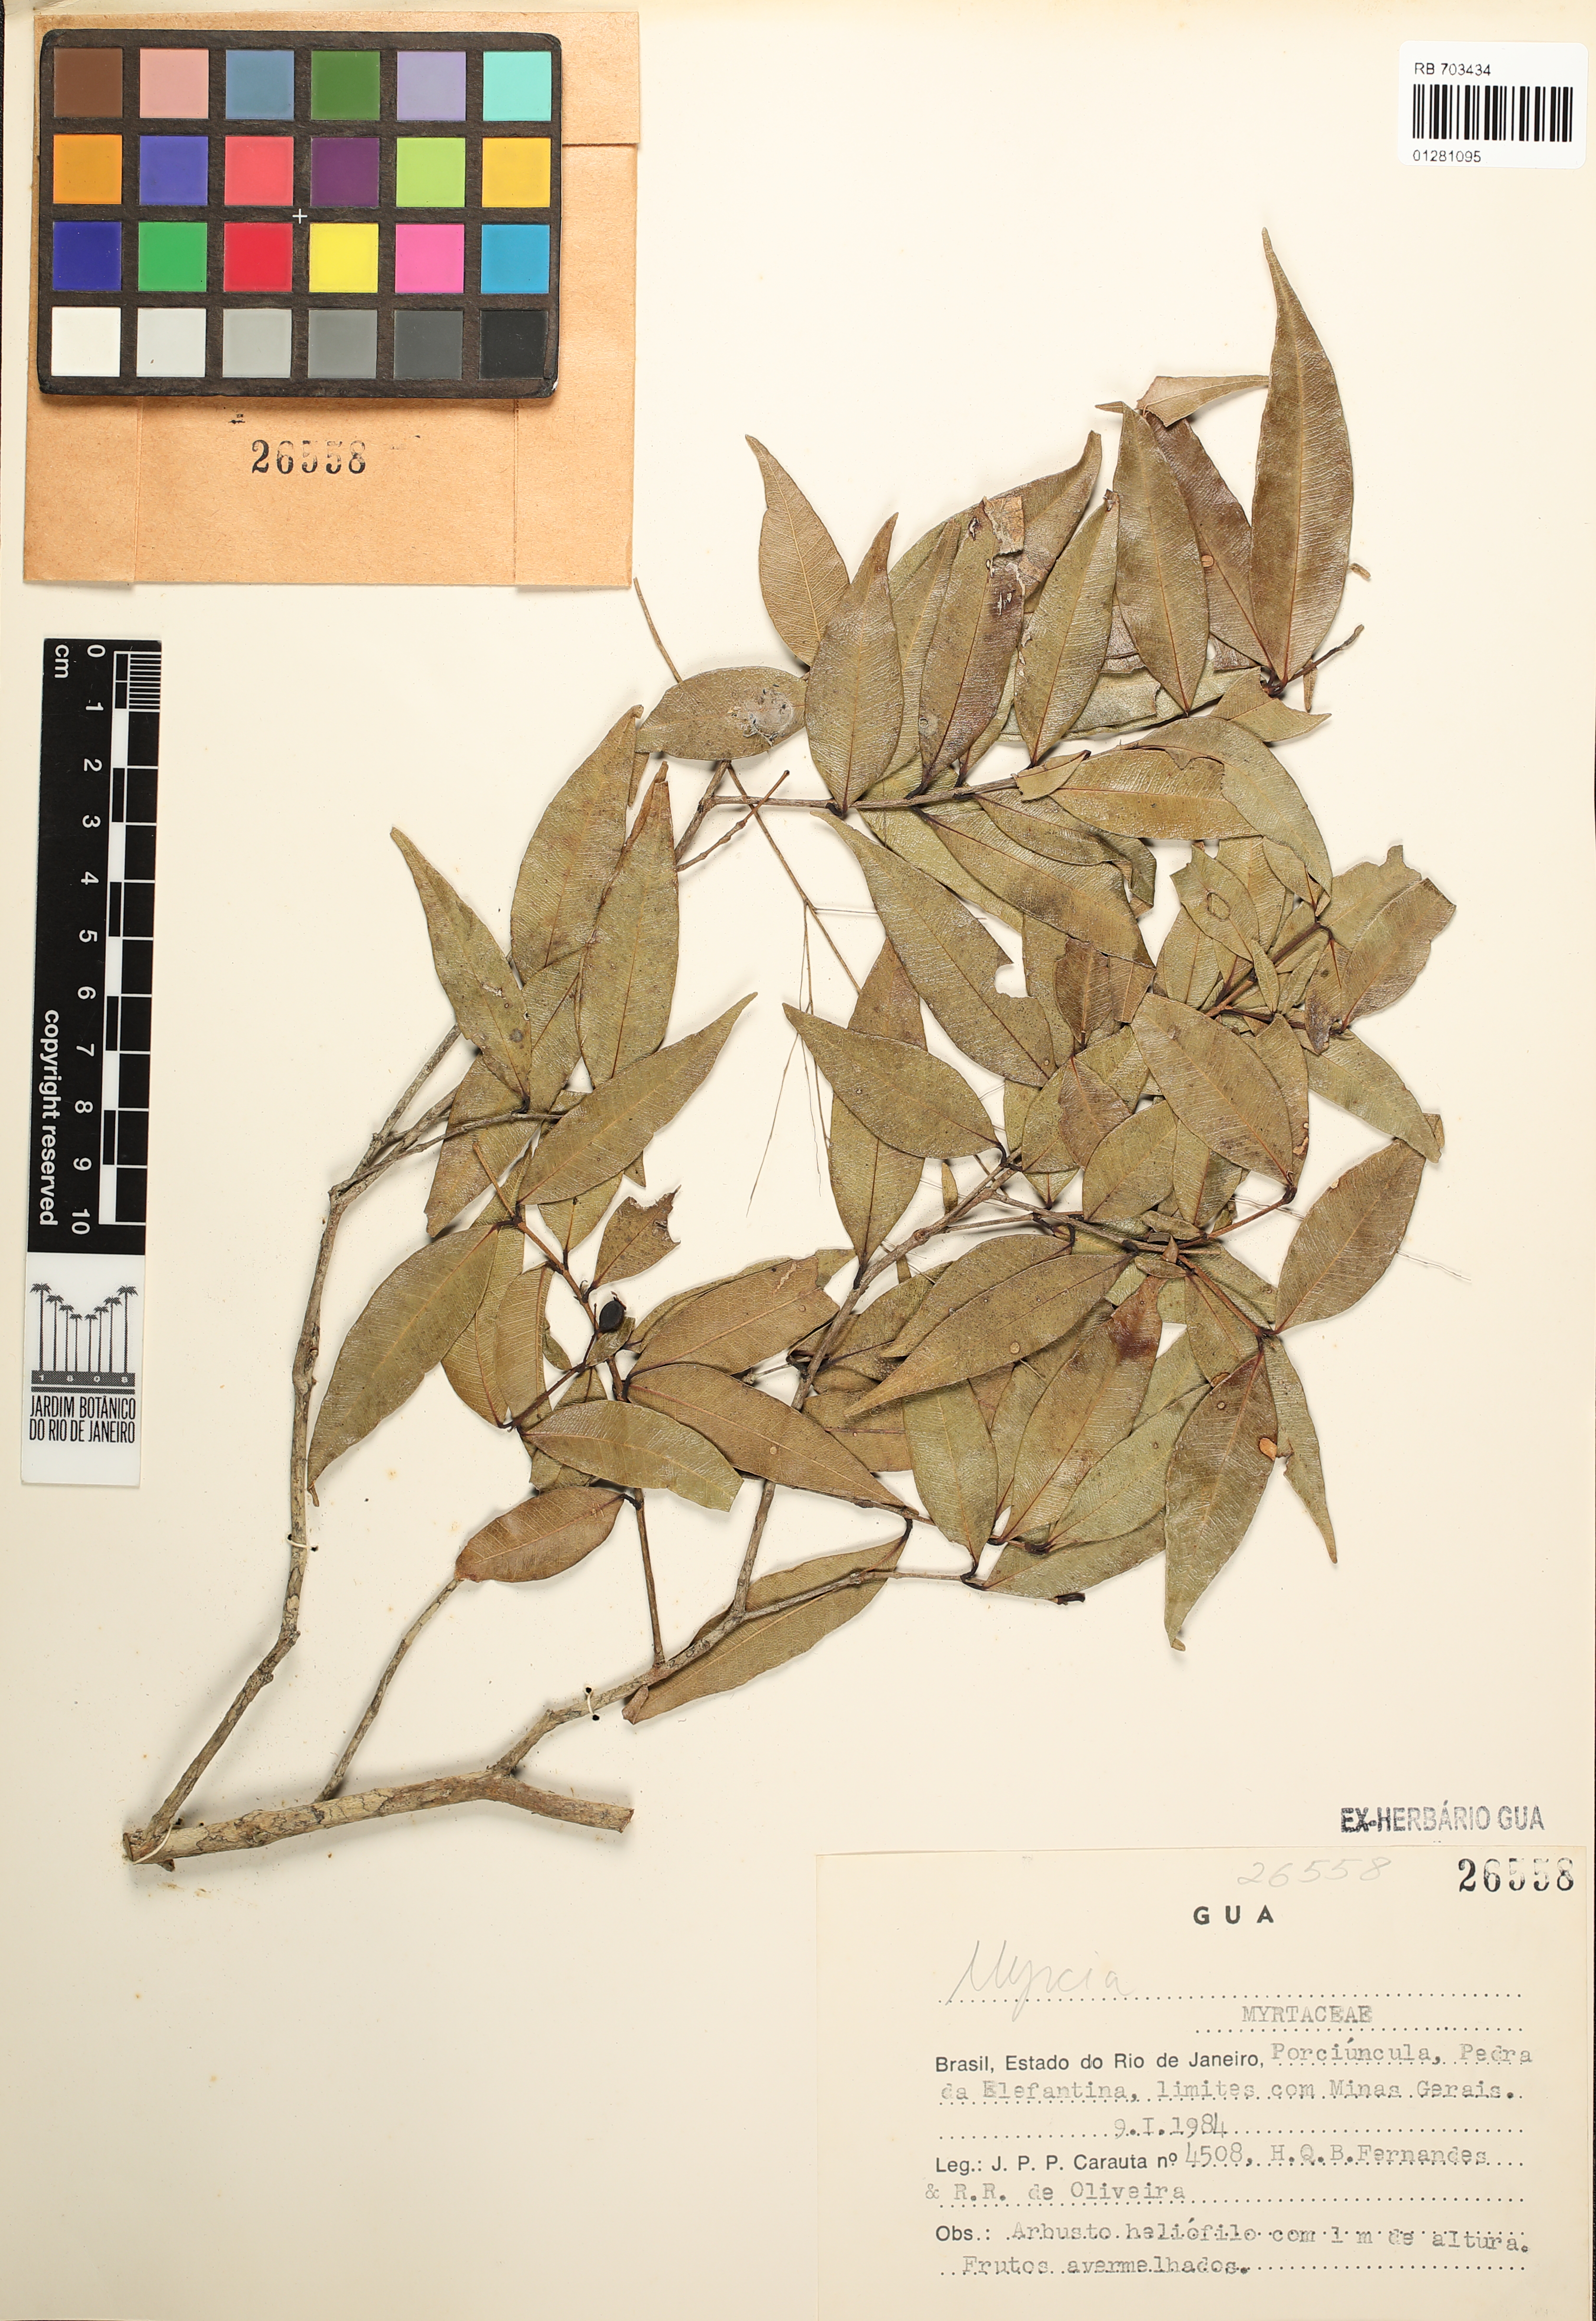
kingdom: Plantae
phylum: Tracheophyta
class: Magnoliopsida
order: Myrtales
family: Myrtaceae
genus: Myrcia
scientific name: Myrcia
